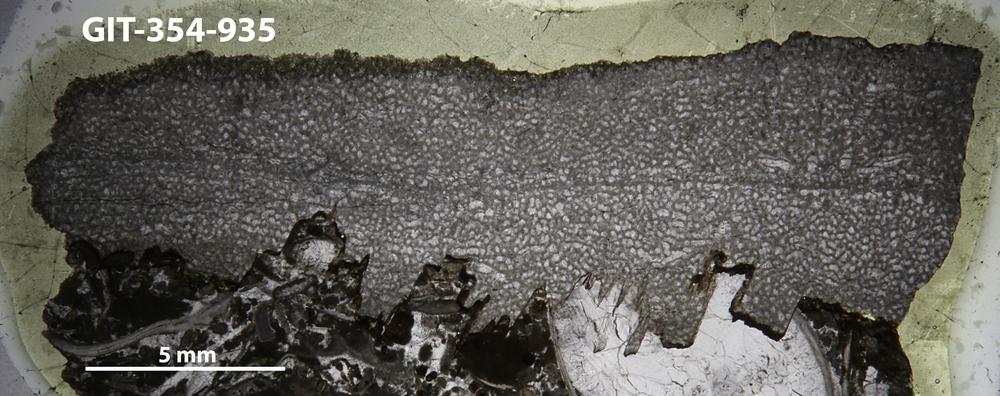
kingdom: Animalia
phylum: Porifera
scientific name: Porifera
